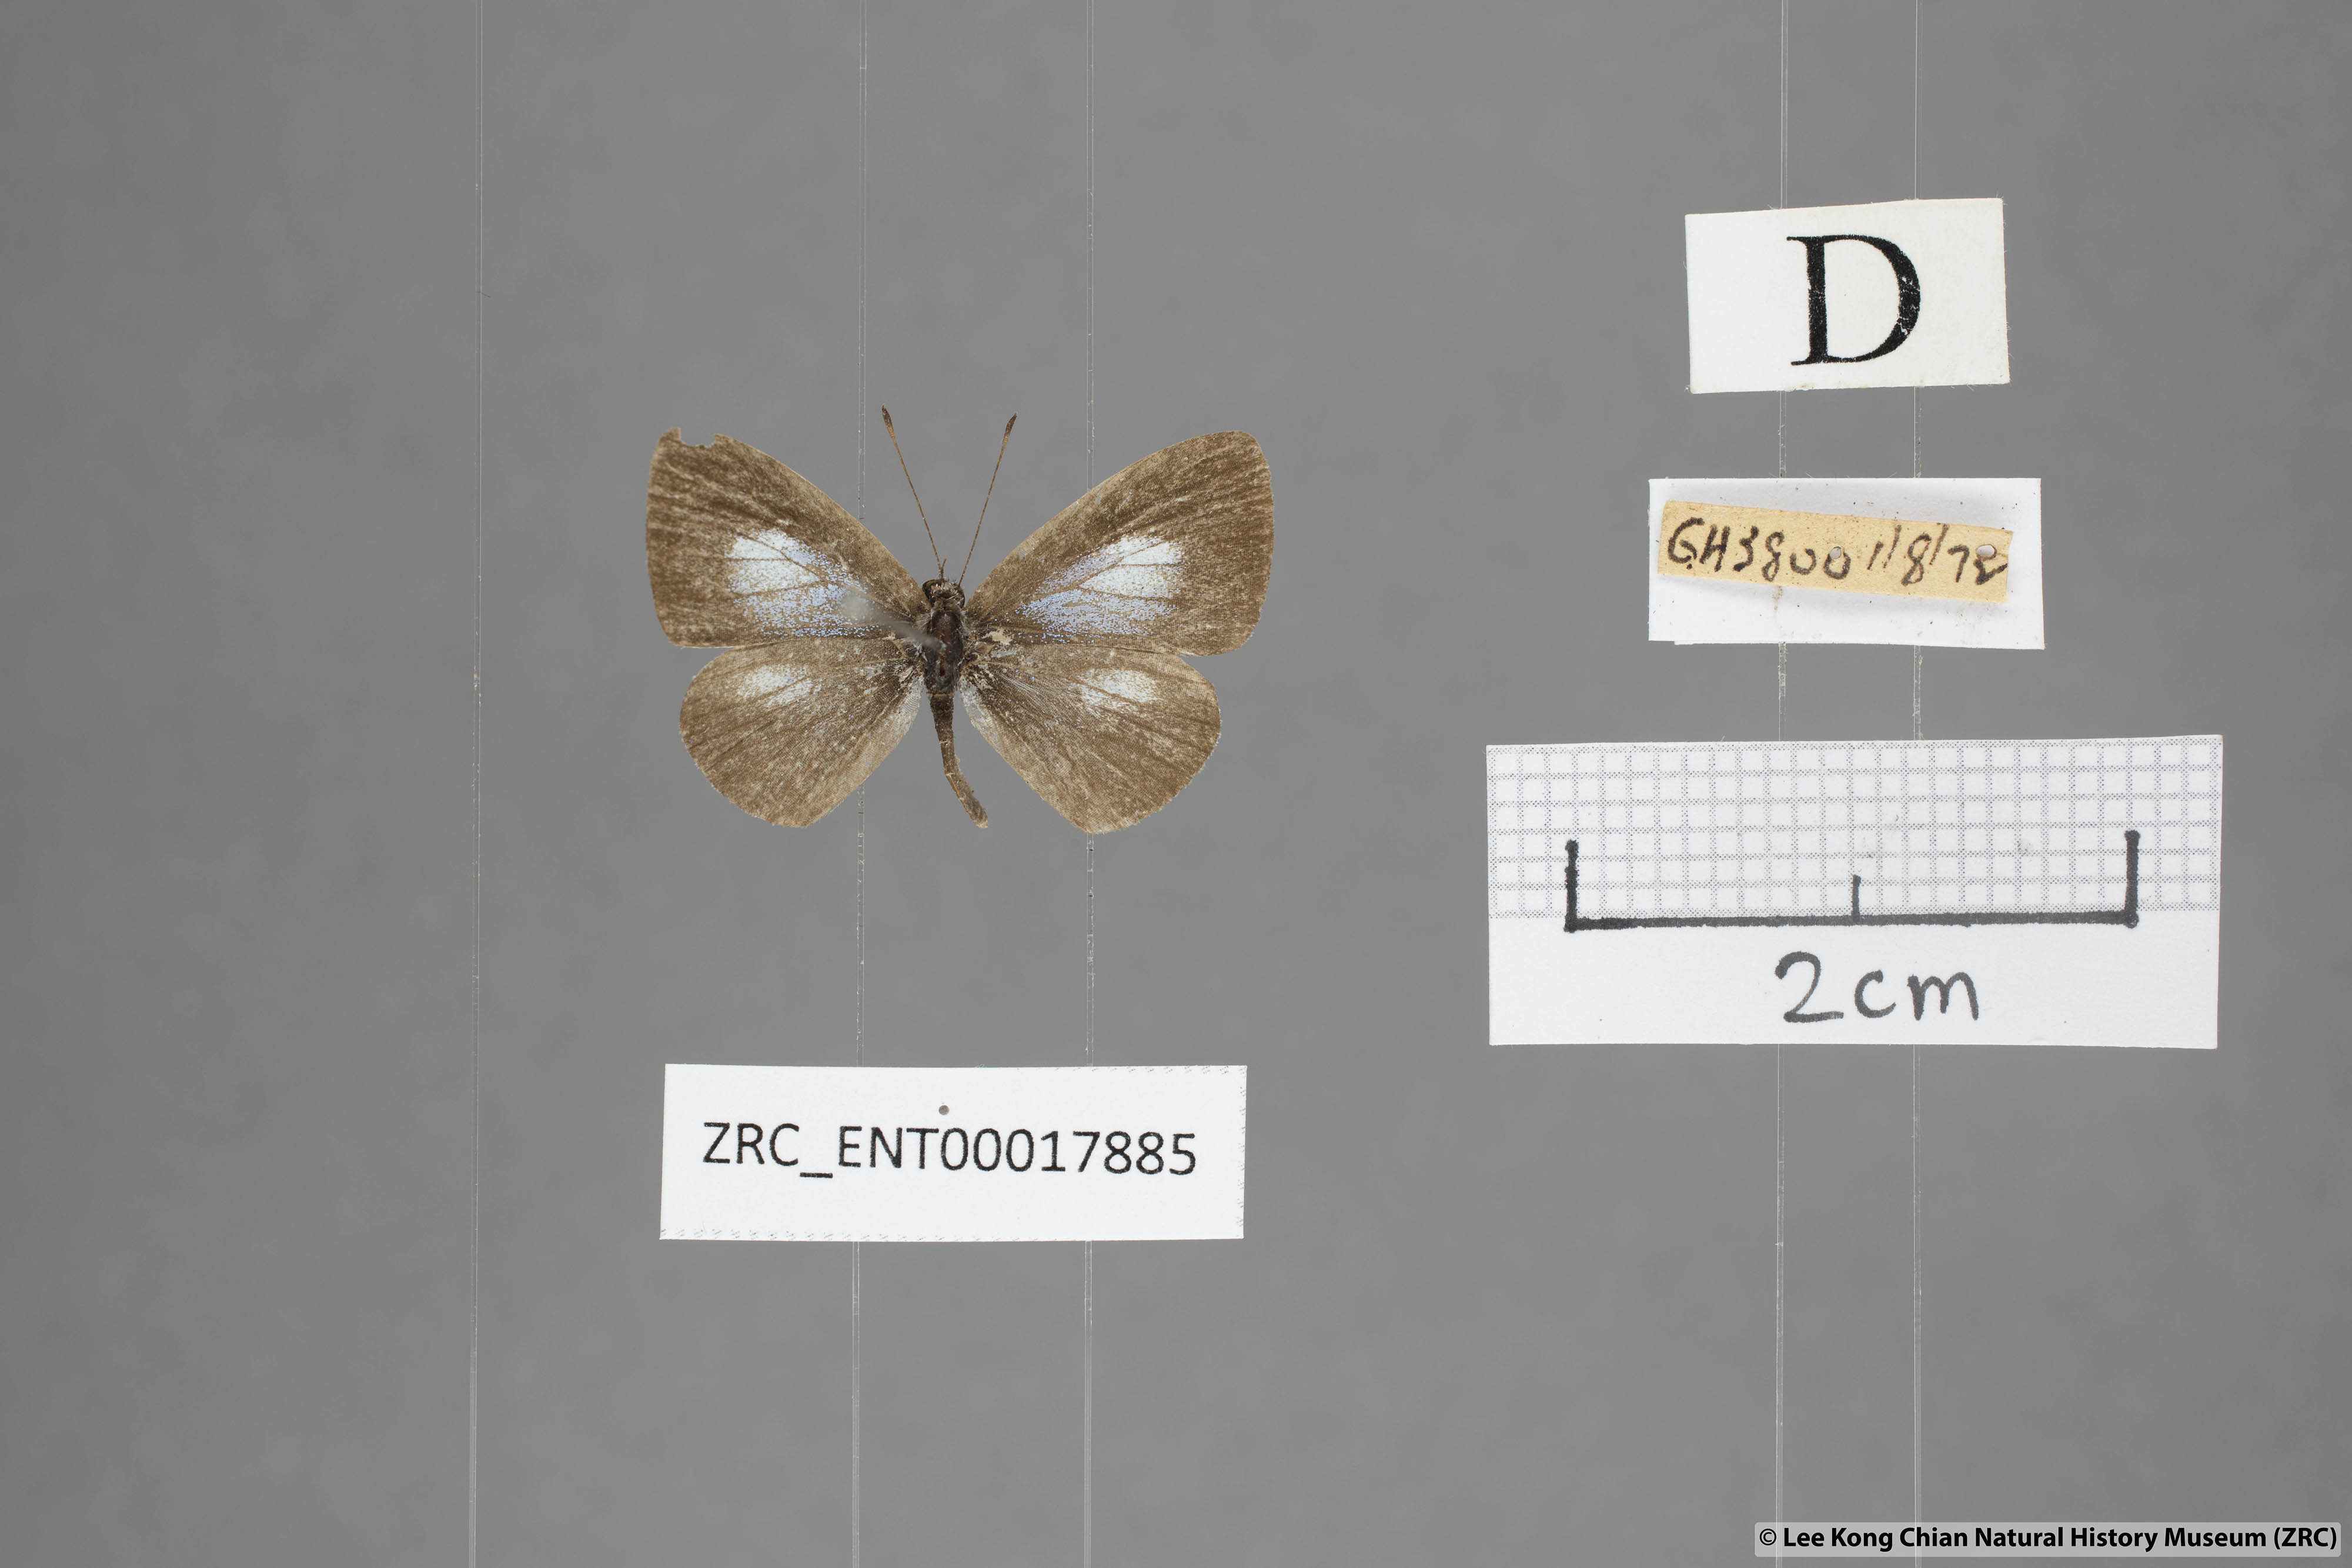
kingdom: Animalia
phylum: Arthropoda
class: Insecta
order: Lepidoptera
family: Lycaenidae
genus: Oreolyce
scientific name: Oreolyce
